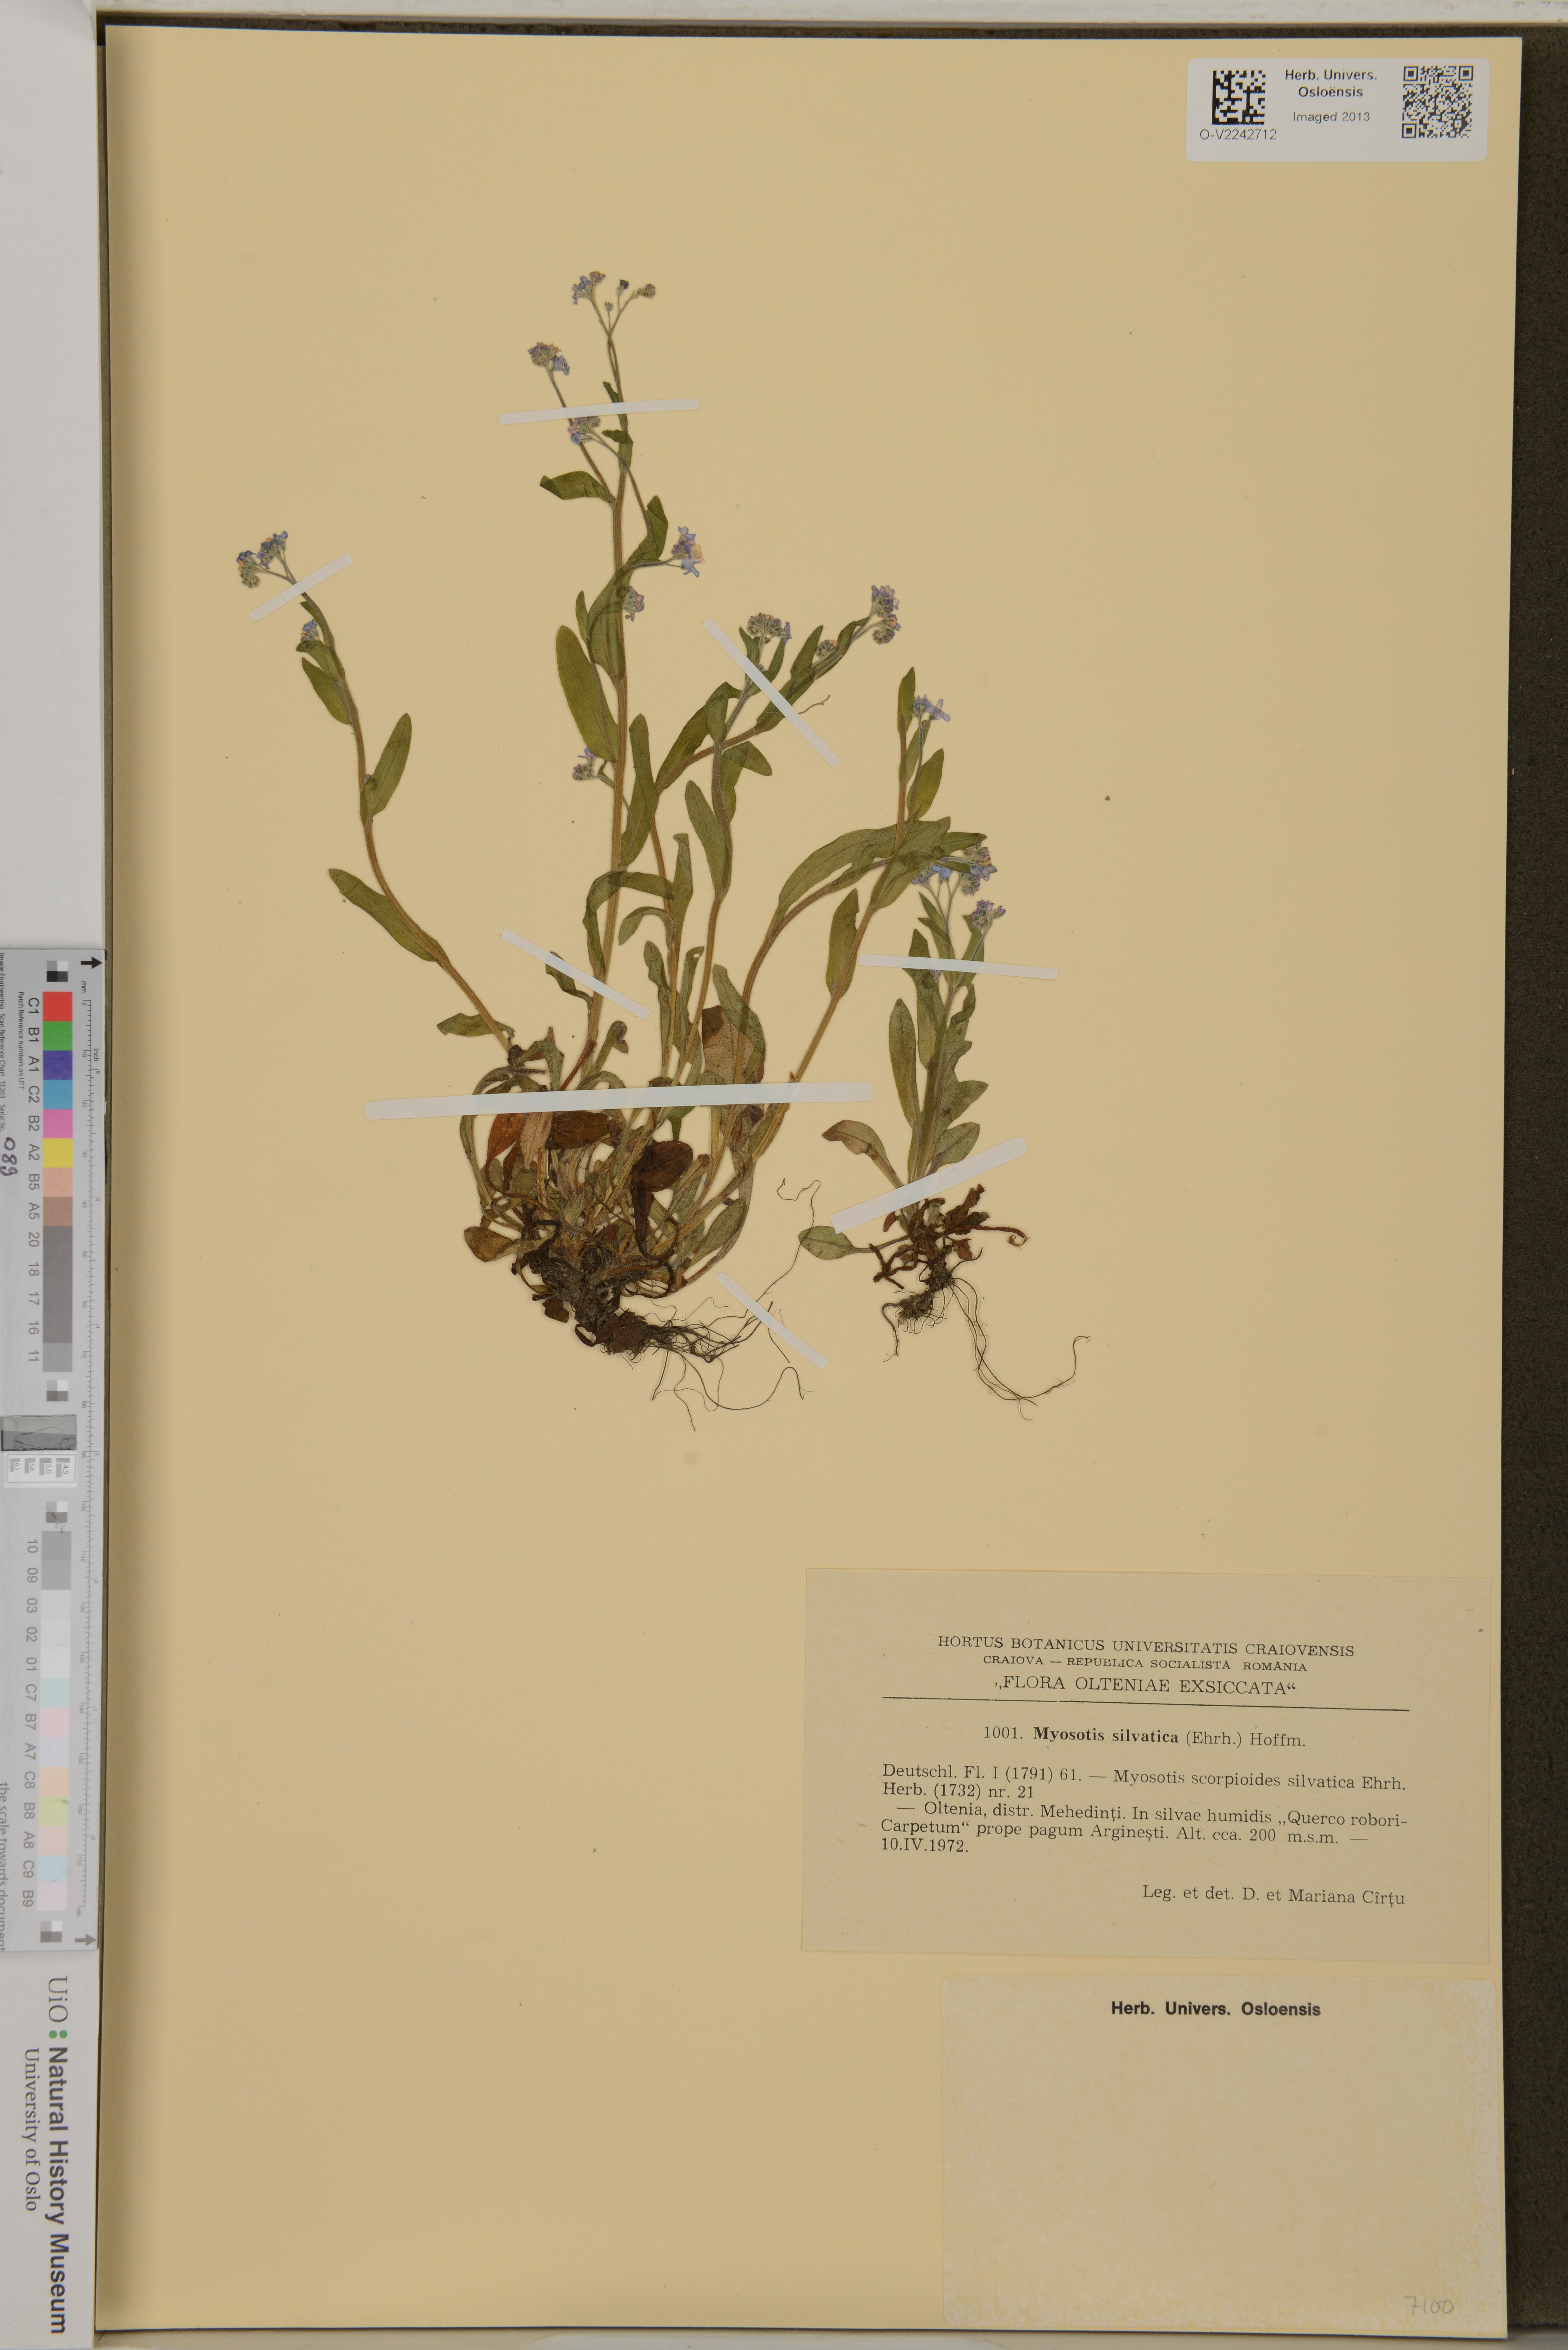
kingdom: Plantae
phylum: Tracheophyta
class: Magnoliopsida
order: Boraginales
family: Boraginaceae
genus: Myosotis
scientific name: Myosotis sylvatica
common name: Wood forget-me-not
